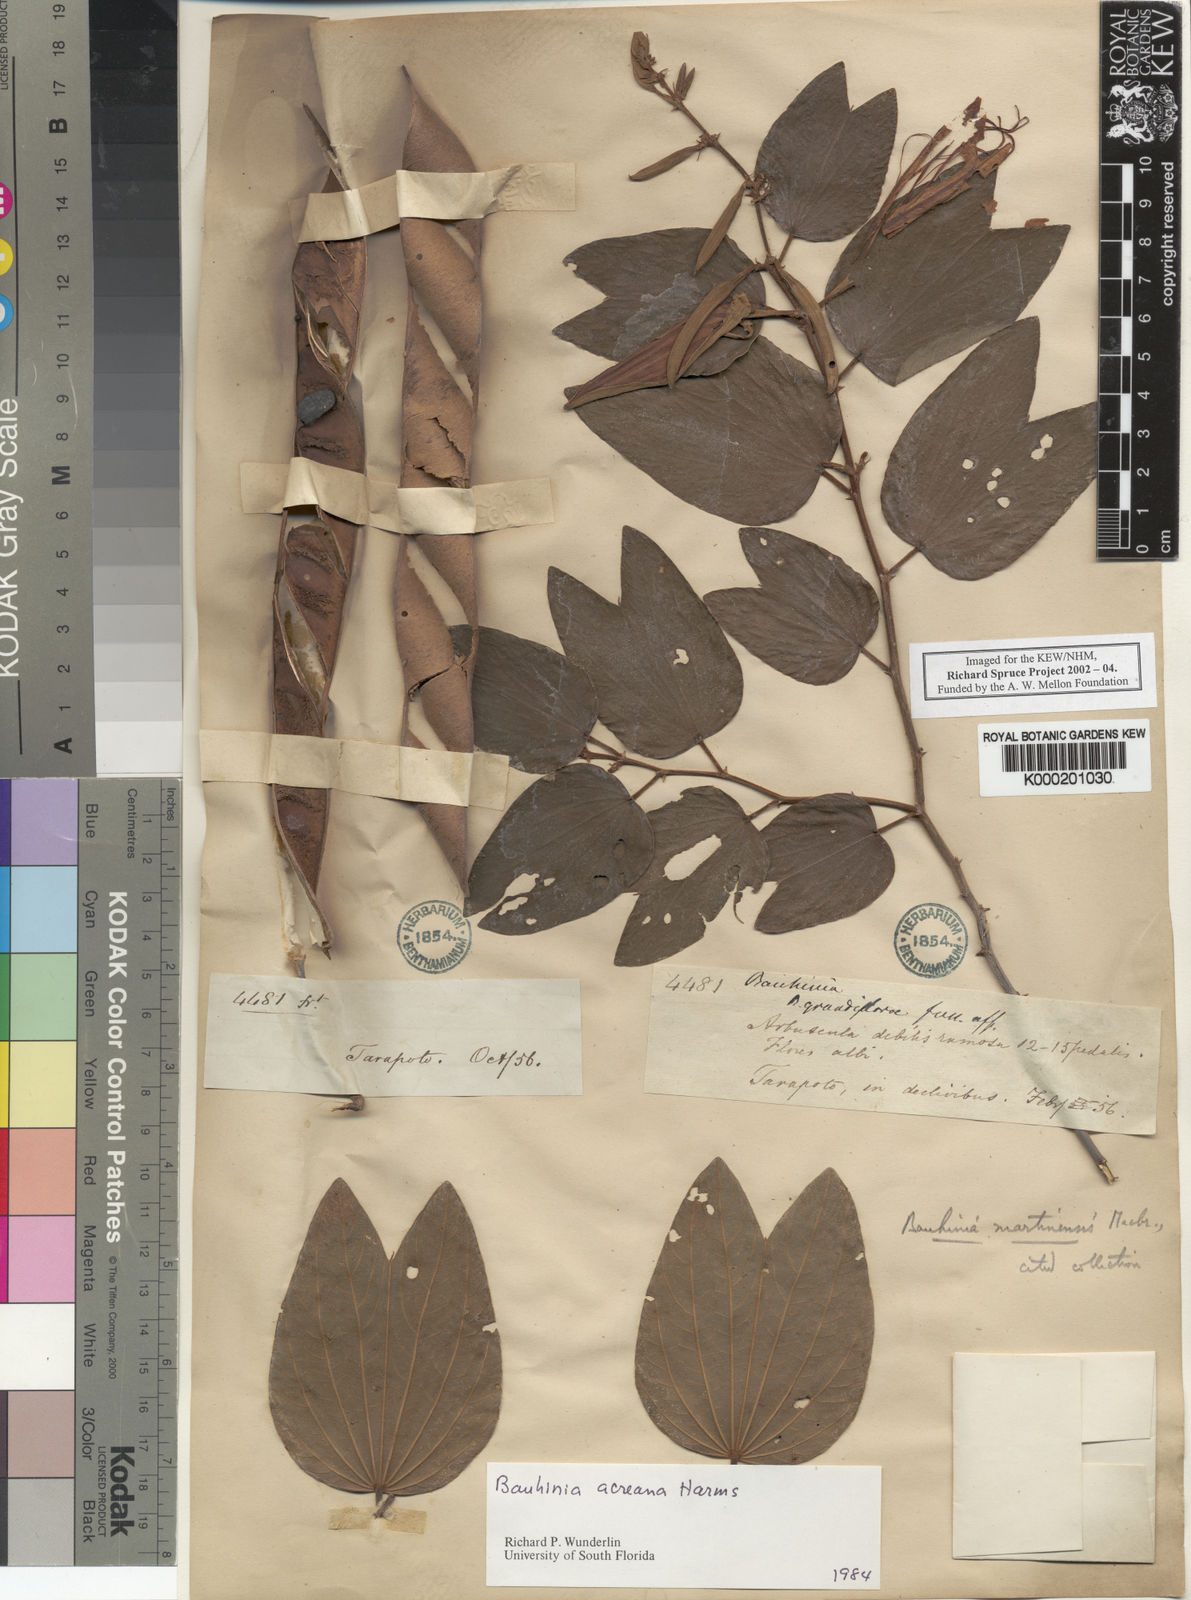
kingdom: Plantae
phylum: Tracheophyta
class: Magnoliopsida
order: Fabales
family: Fabaceae
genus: Bauhinia
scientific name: Bauhinia acreana
